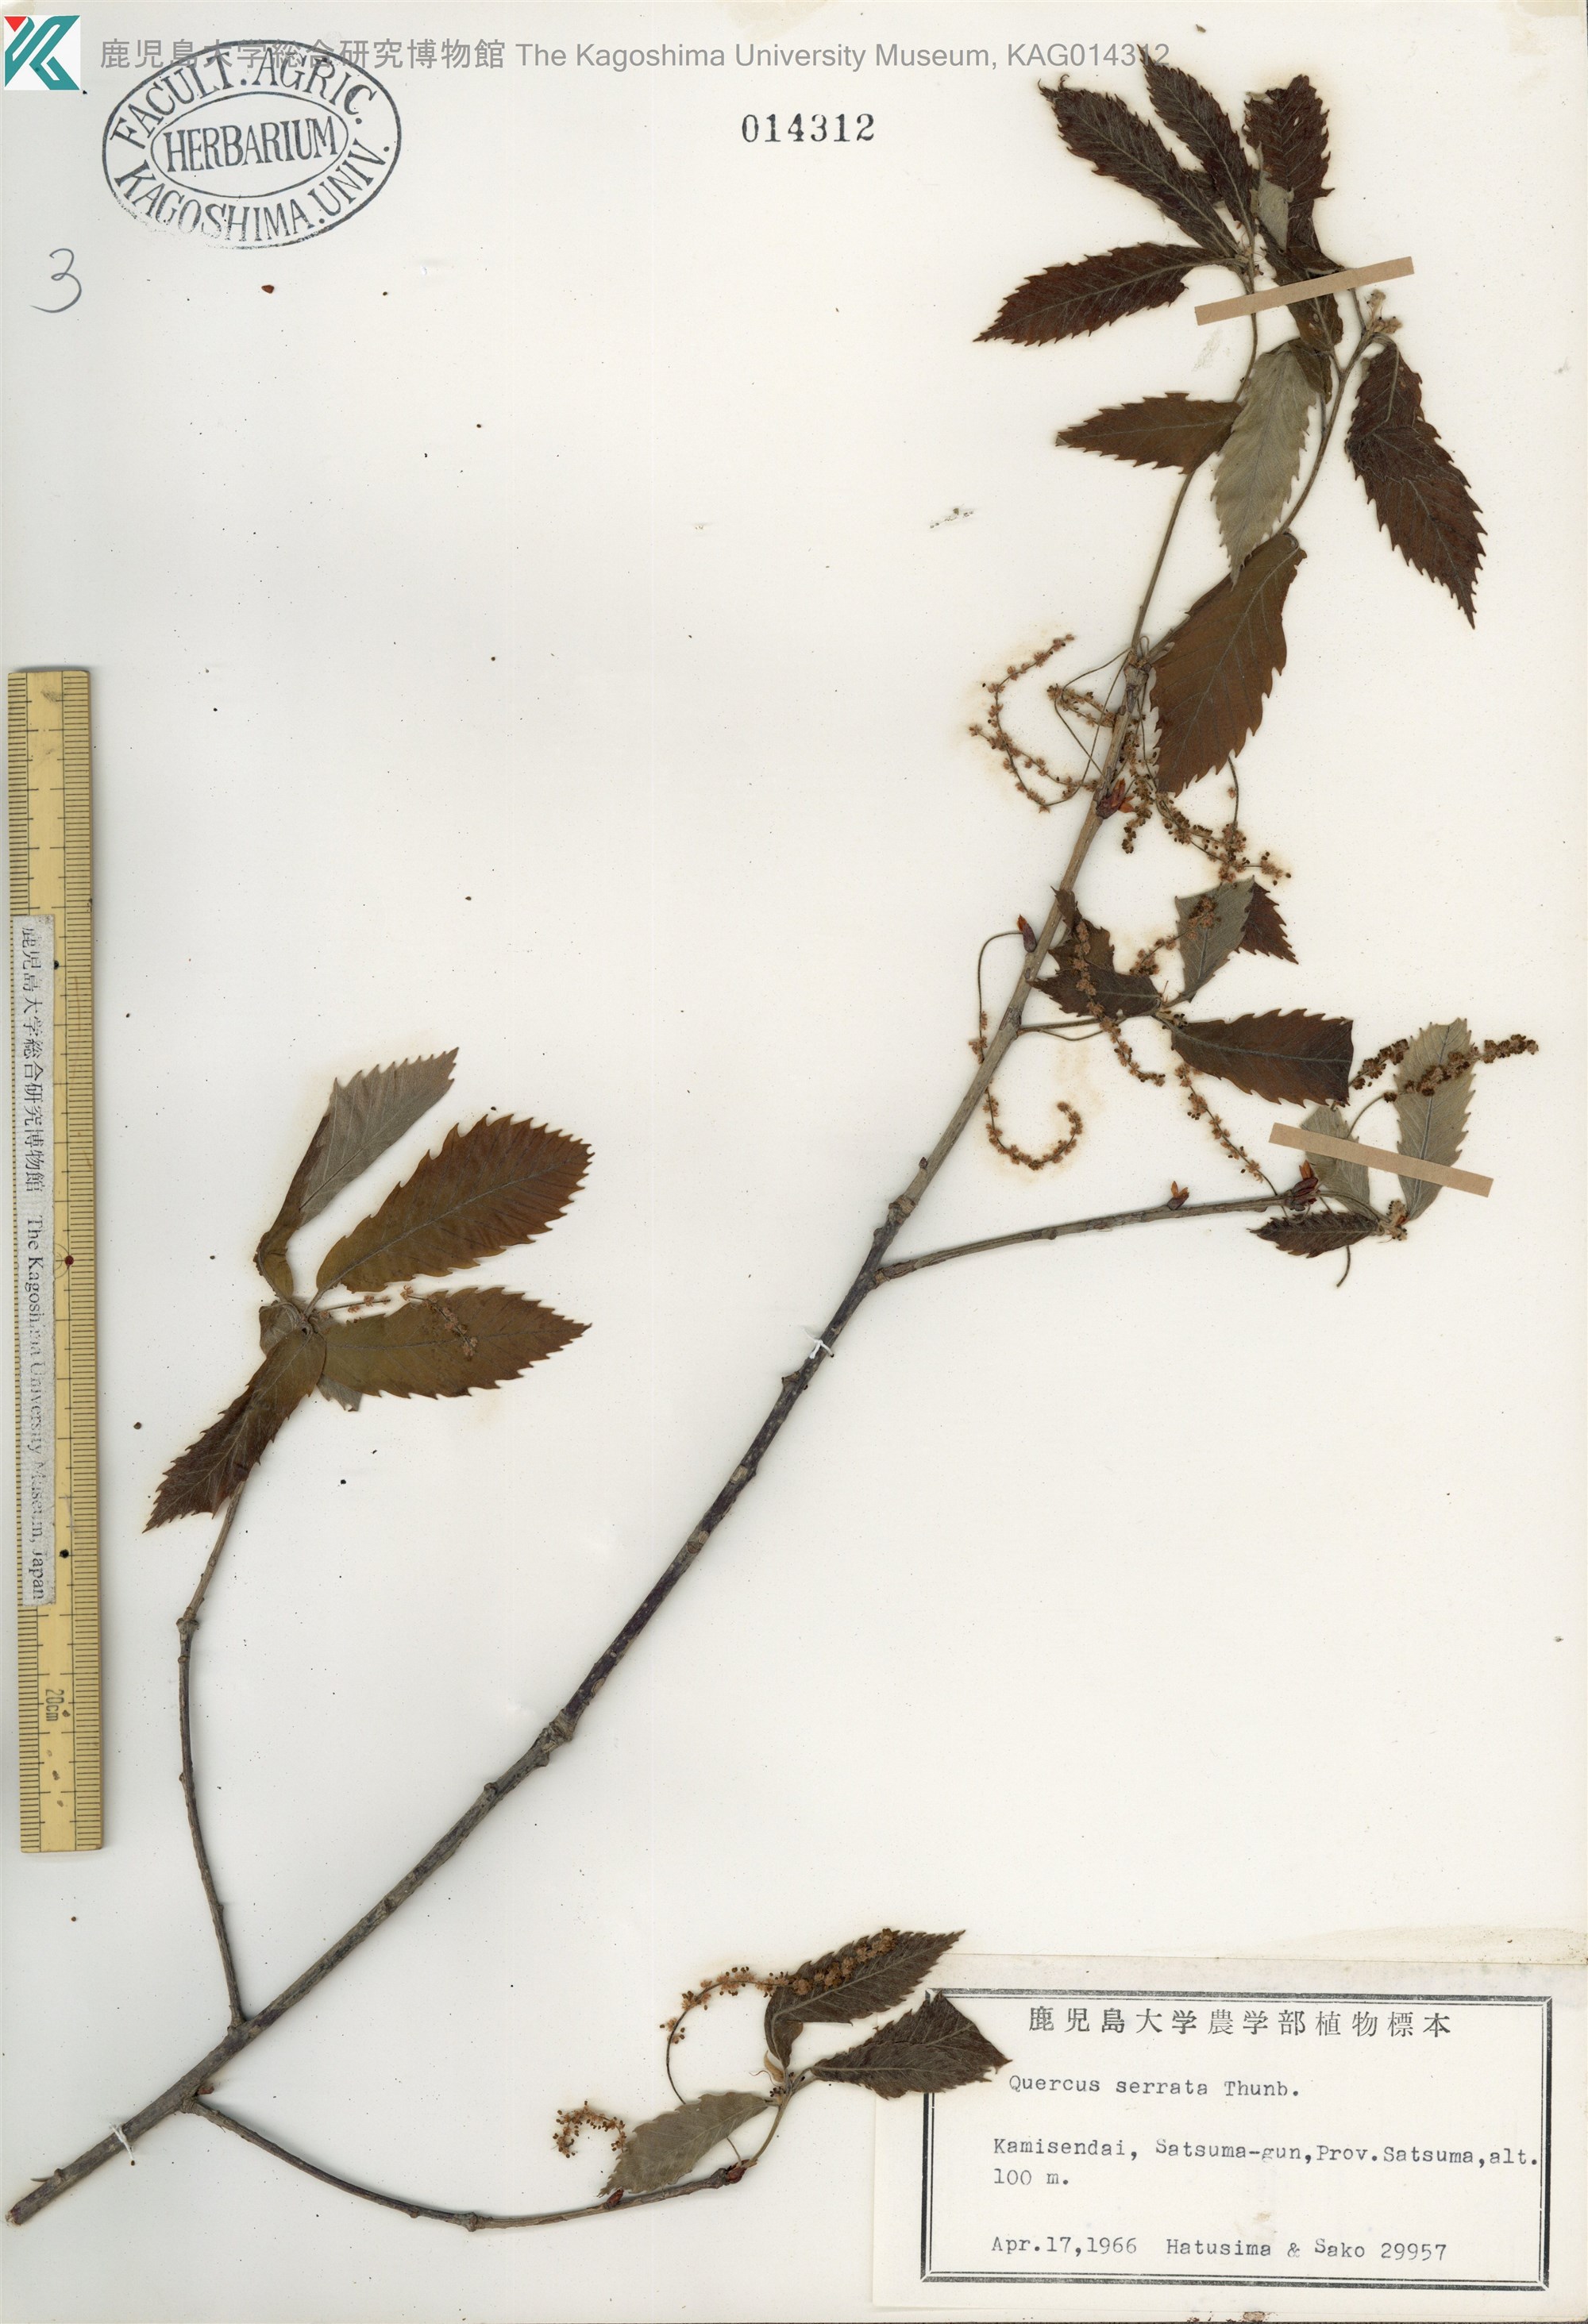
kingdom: Plantae
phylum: Tracheophyta
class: Magnoliopsida
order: Fagales
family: Fagaceae
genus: Quercus
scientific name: Quercus serrata
